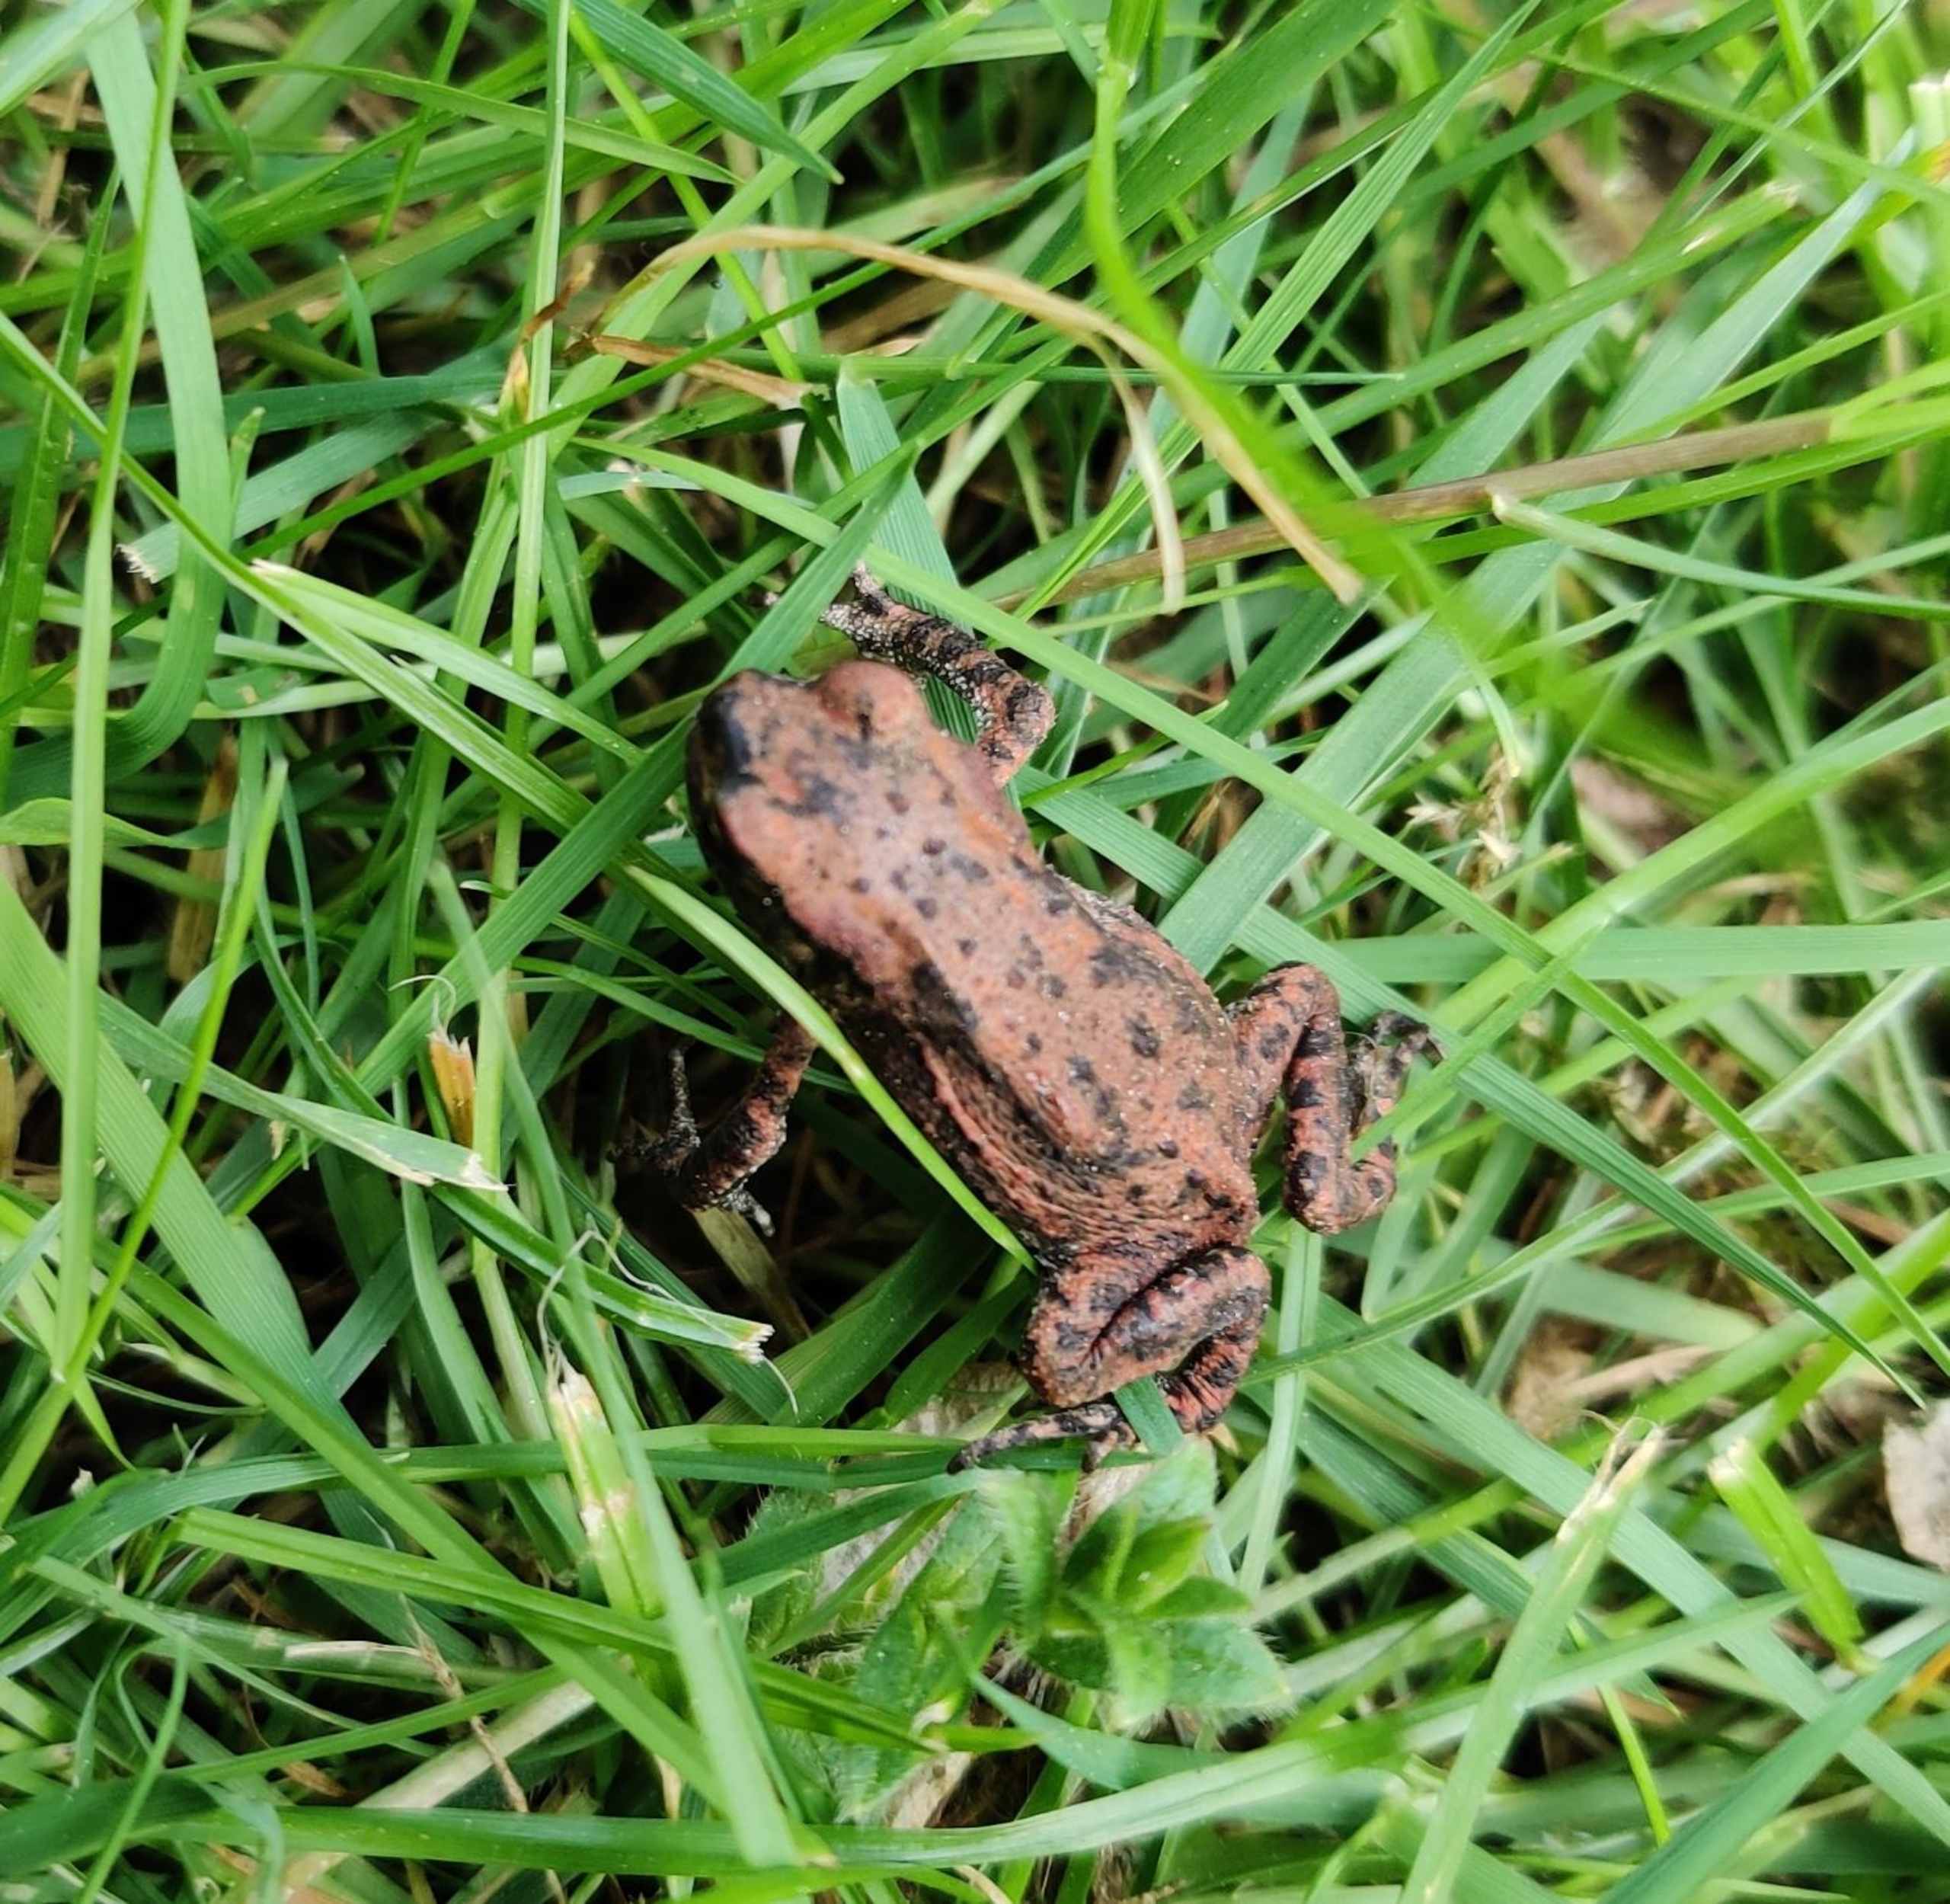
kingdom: Animalia
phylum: Chordata
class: Amphibia
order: Anura
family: Bufonidae
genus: Bufo
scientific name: Bufo bufo
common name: Skrubtudse
